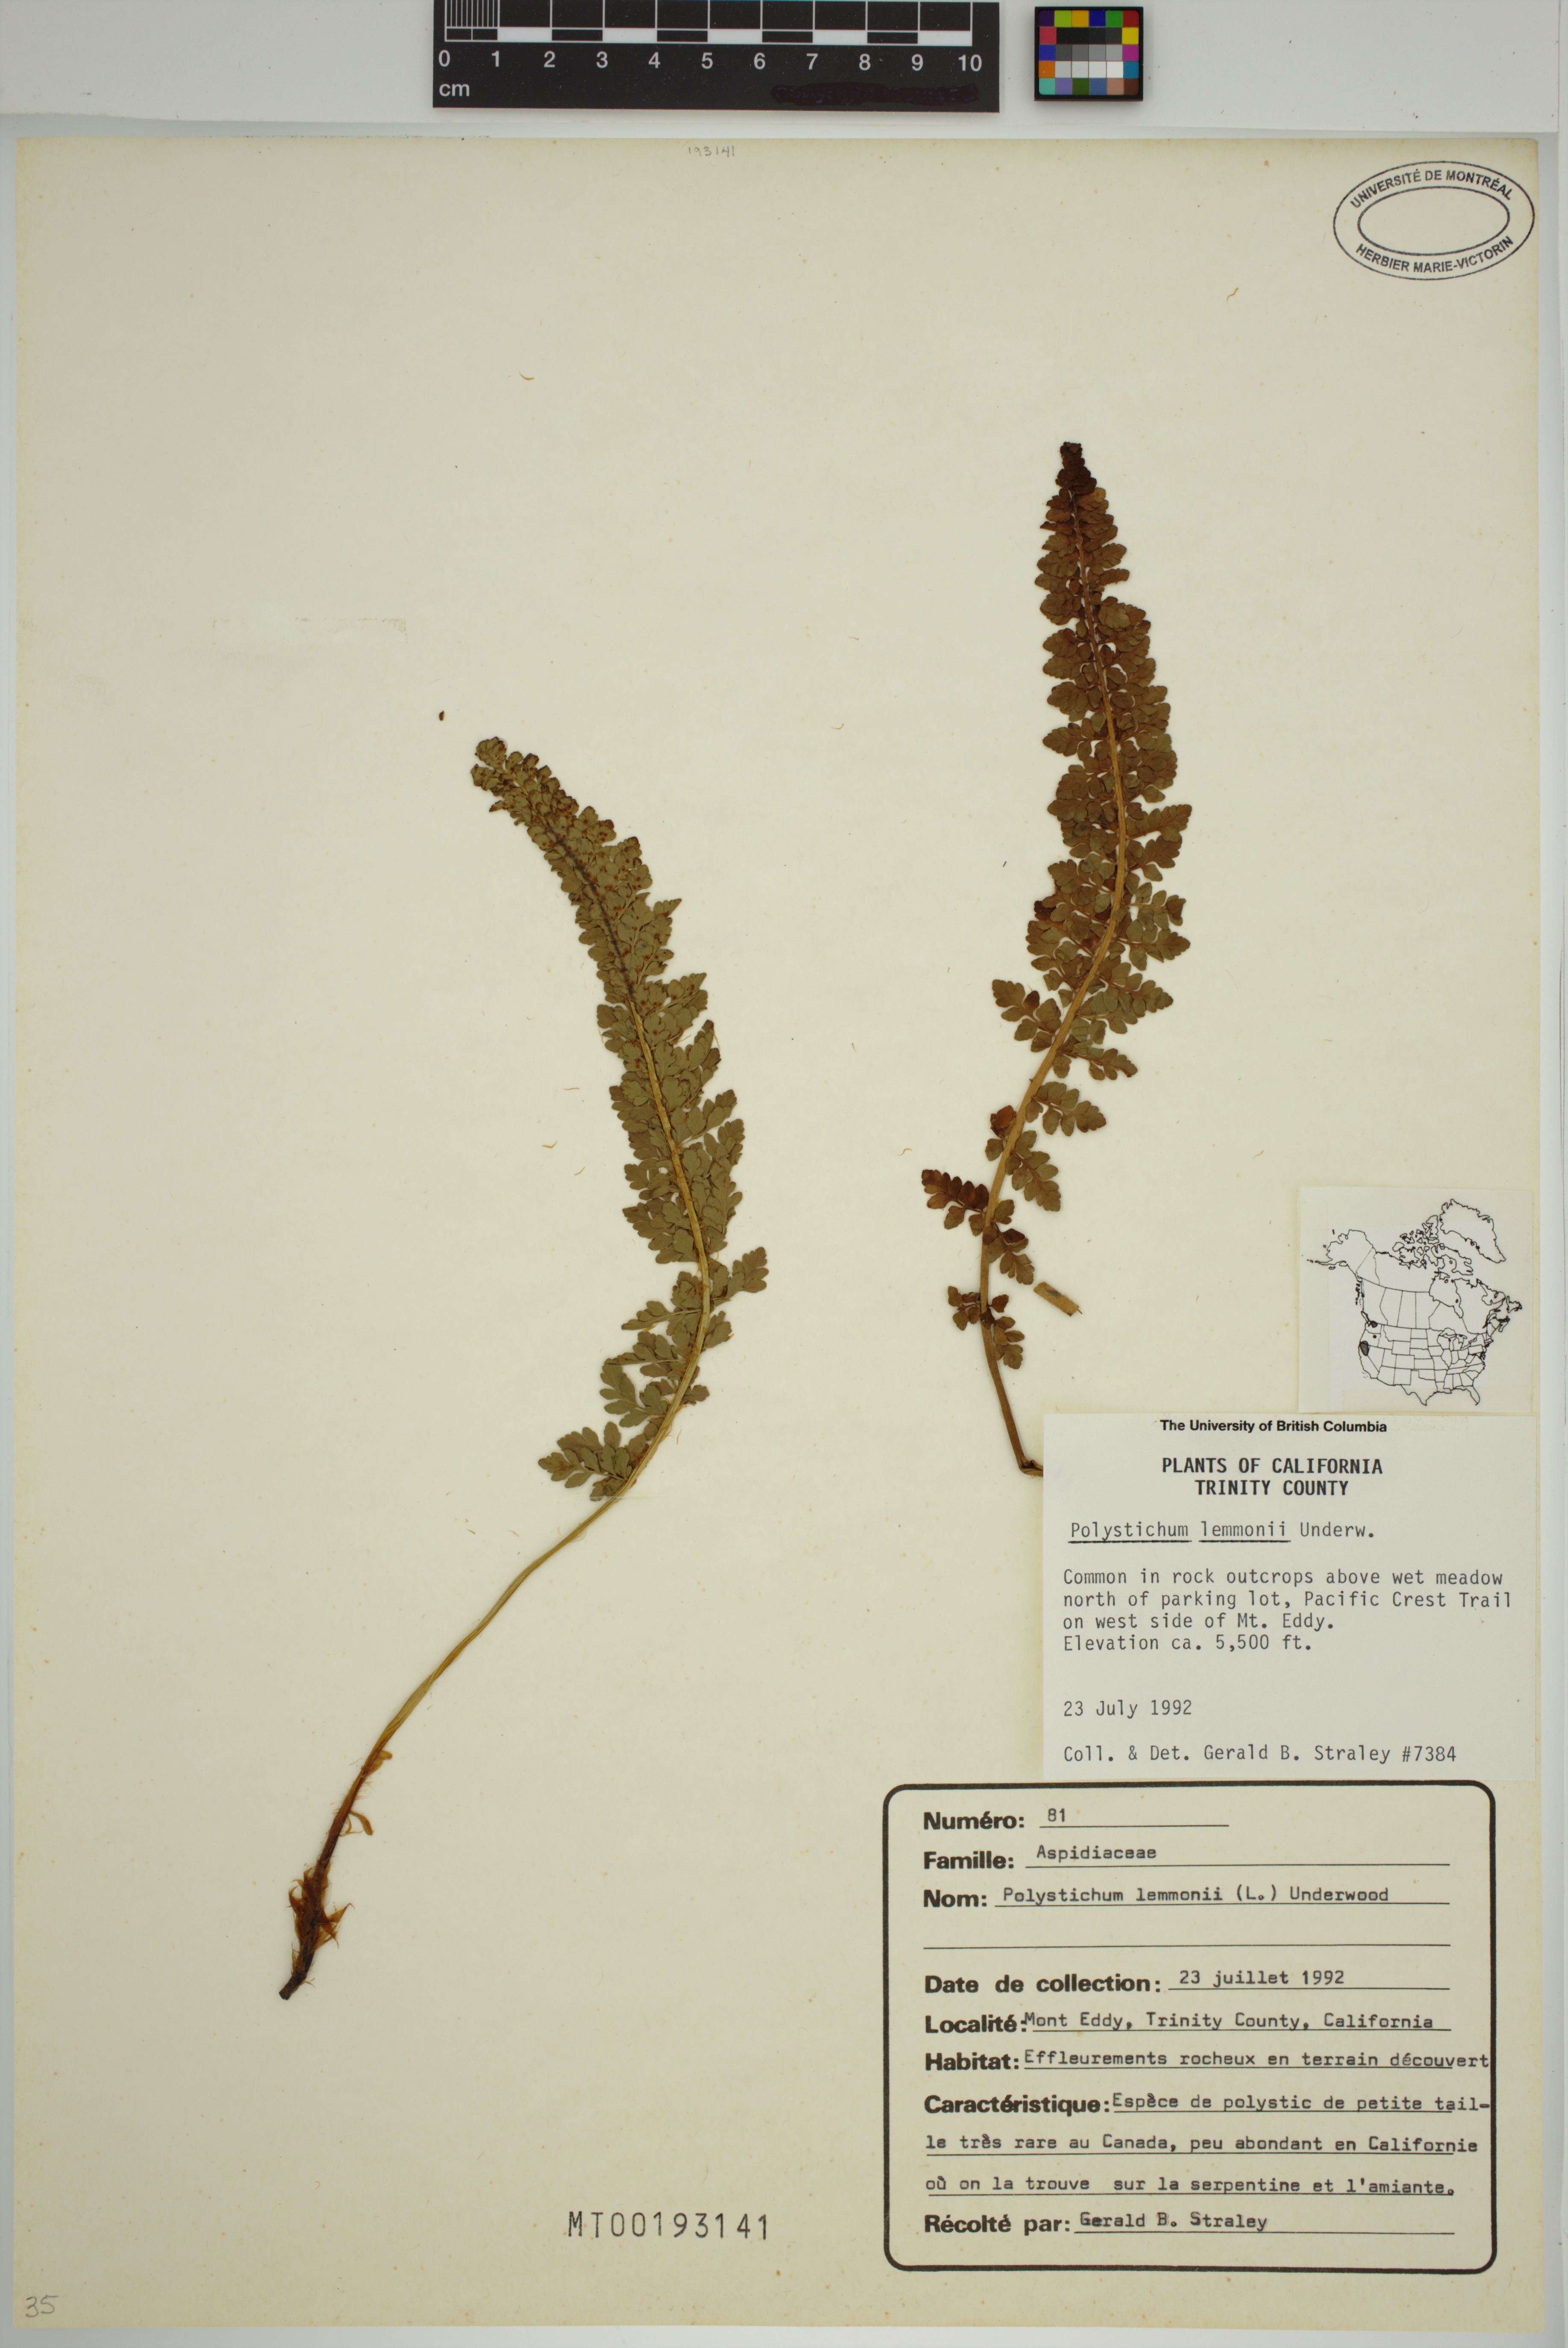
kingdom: Plantae
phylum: Tracheophyta
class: Polypodiopsida
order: Polypodiales
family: Dryopteridaceae
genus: Polystichum
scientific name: Polystichum lemmonii
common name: Lemmon's holly fern
